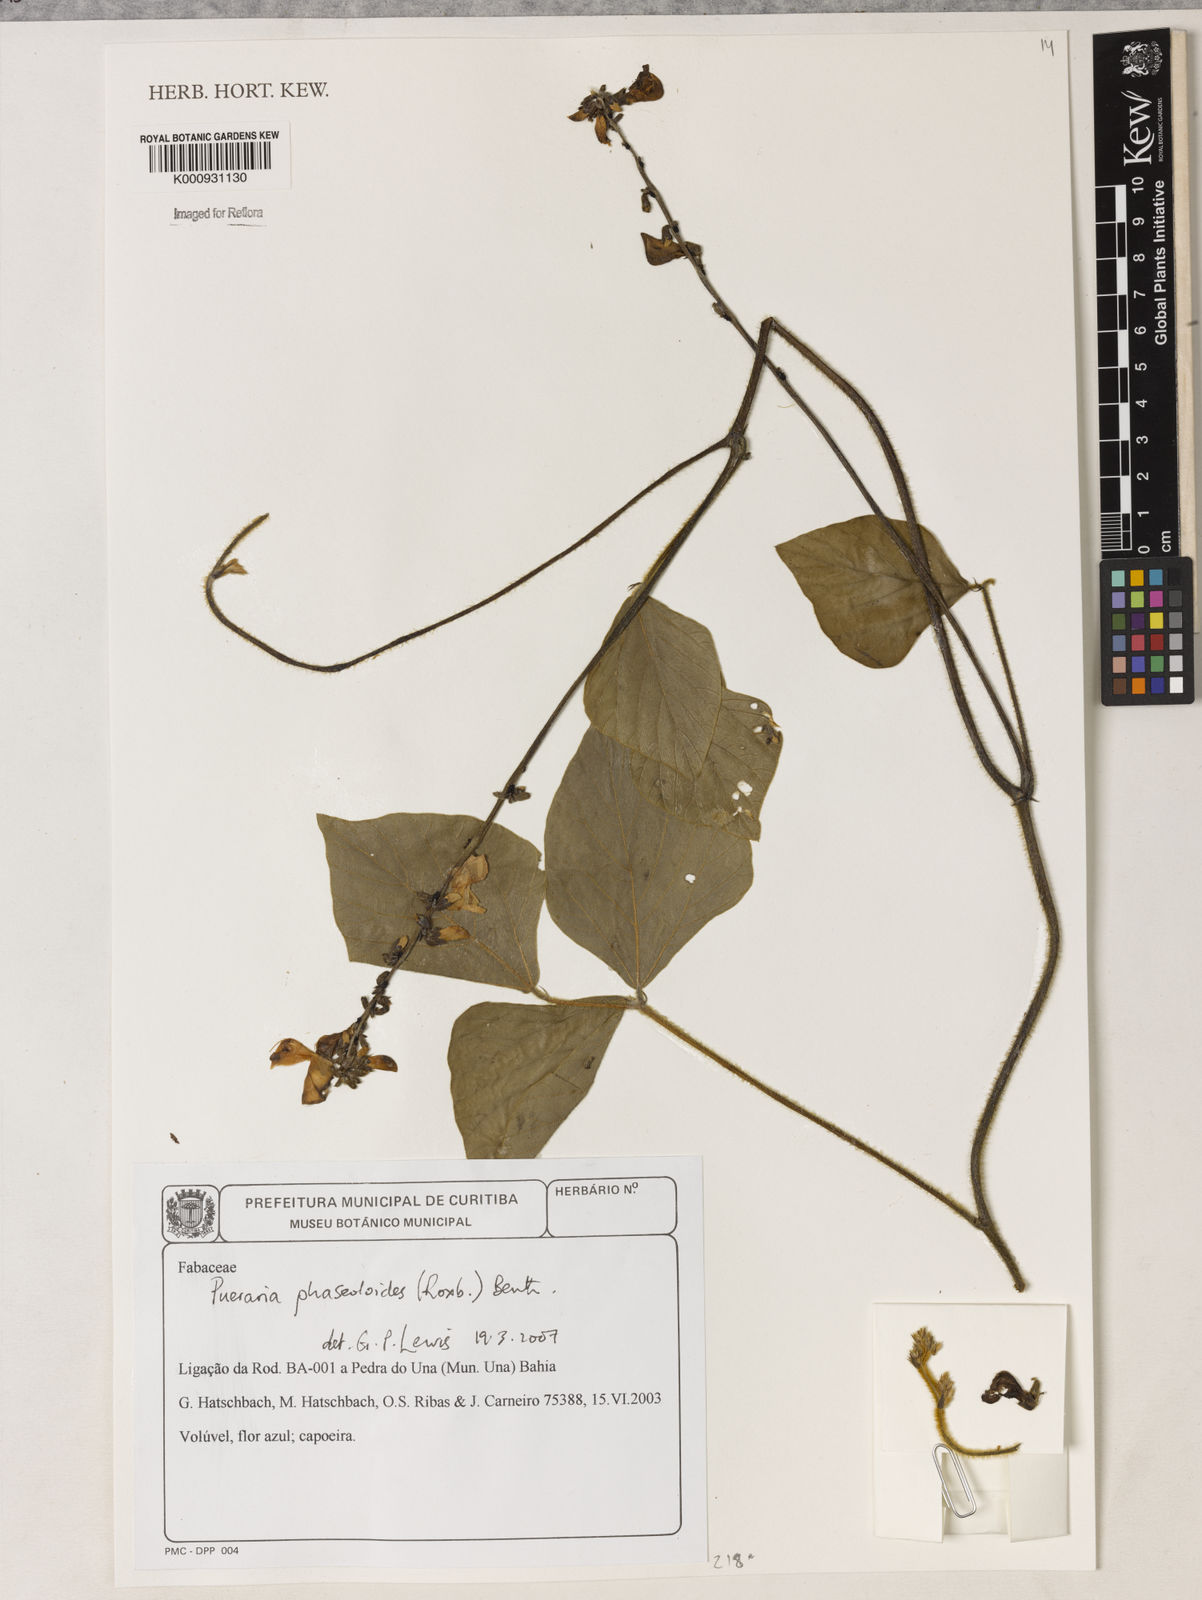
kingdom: Plantae
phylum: Tracheophyta
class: Magnoliopsida
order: Fabales
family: Fabaceae
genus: Neustanthus
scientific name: Neustanthus phaseoloides
